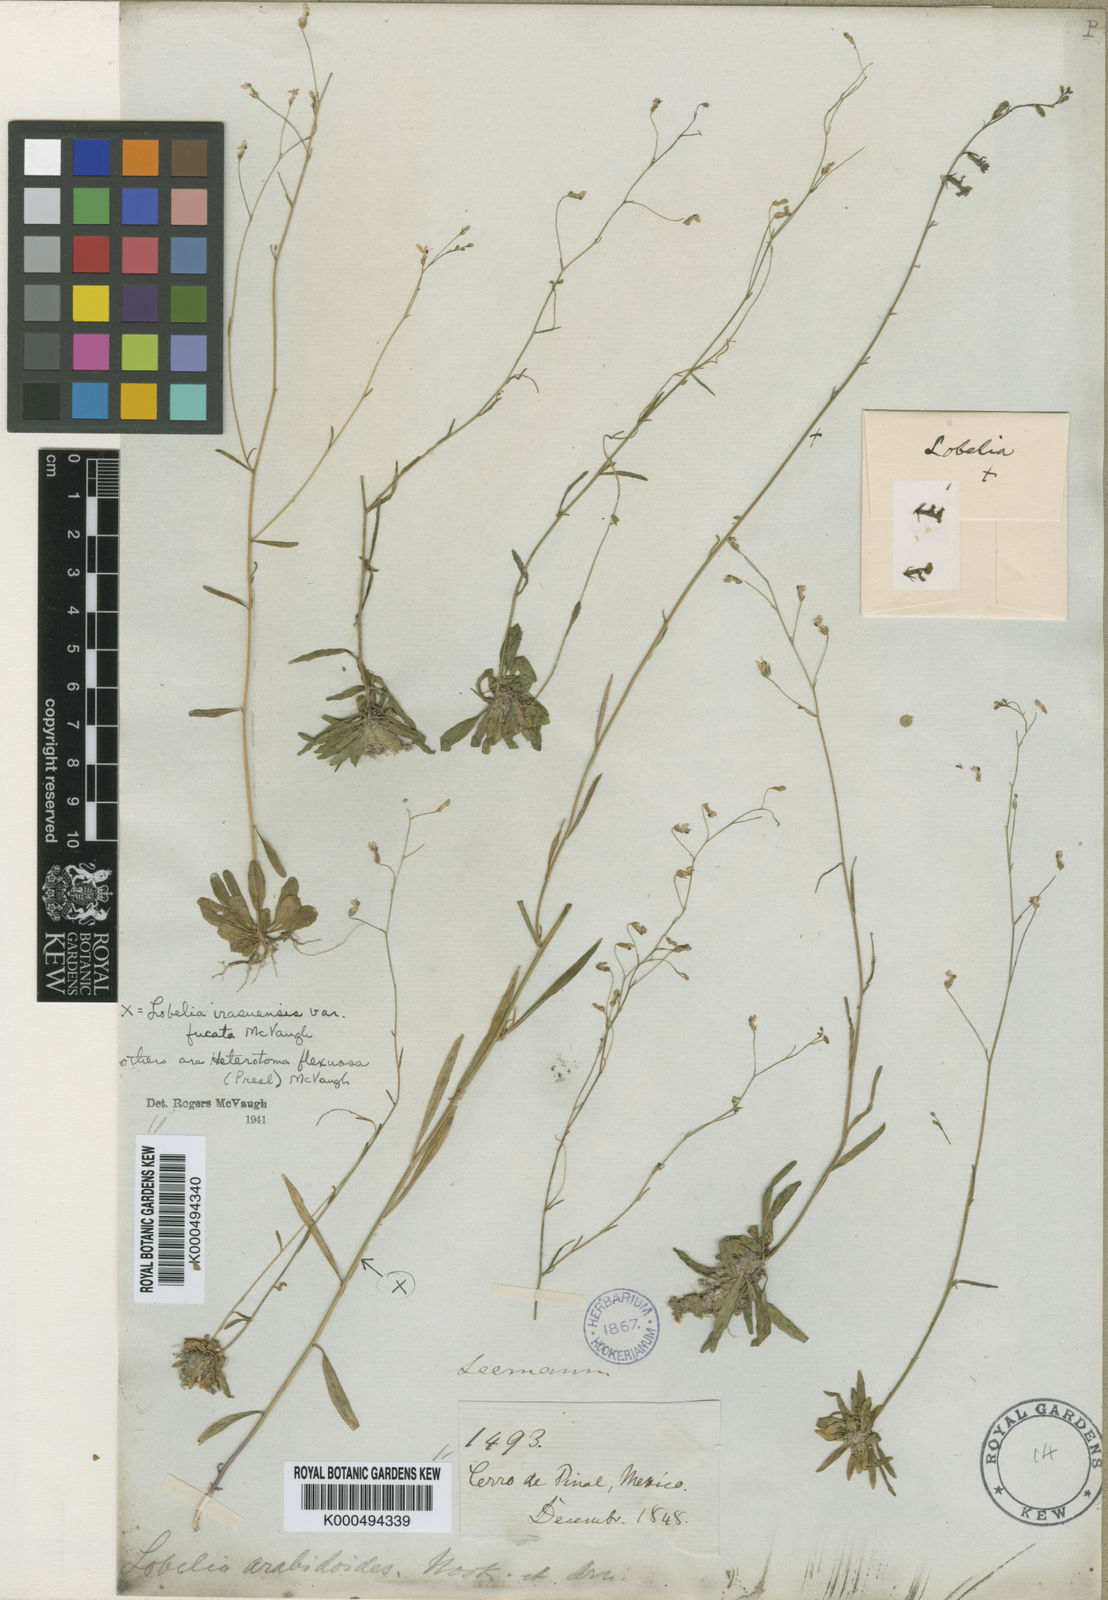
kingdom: Plantae
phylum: Tracheophyta
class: Magnoliopsida
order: Asterales
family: Campanulaceae
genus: Lobelia
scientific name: Lobelia flexuosa
